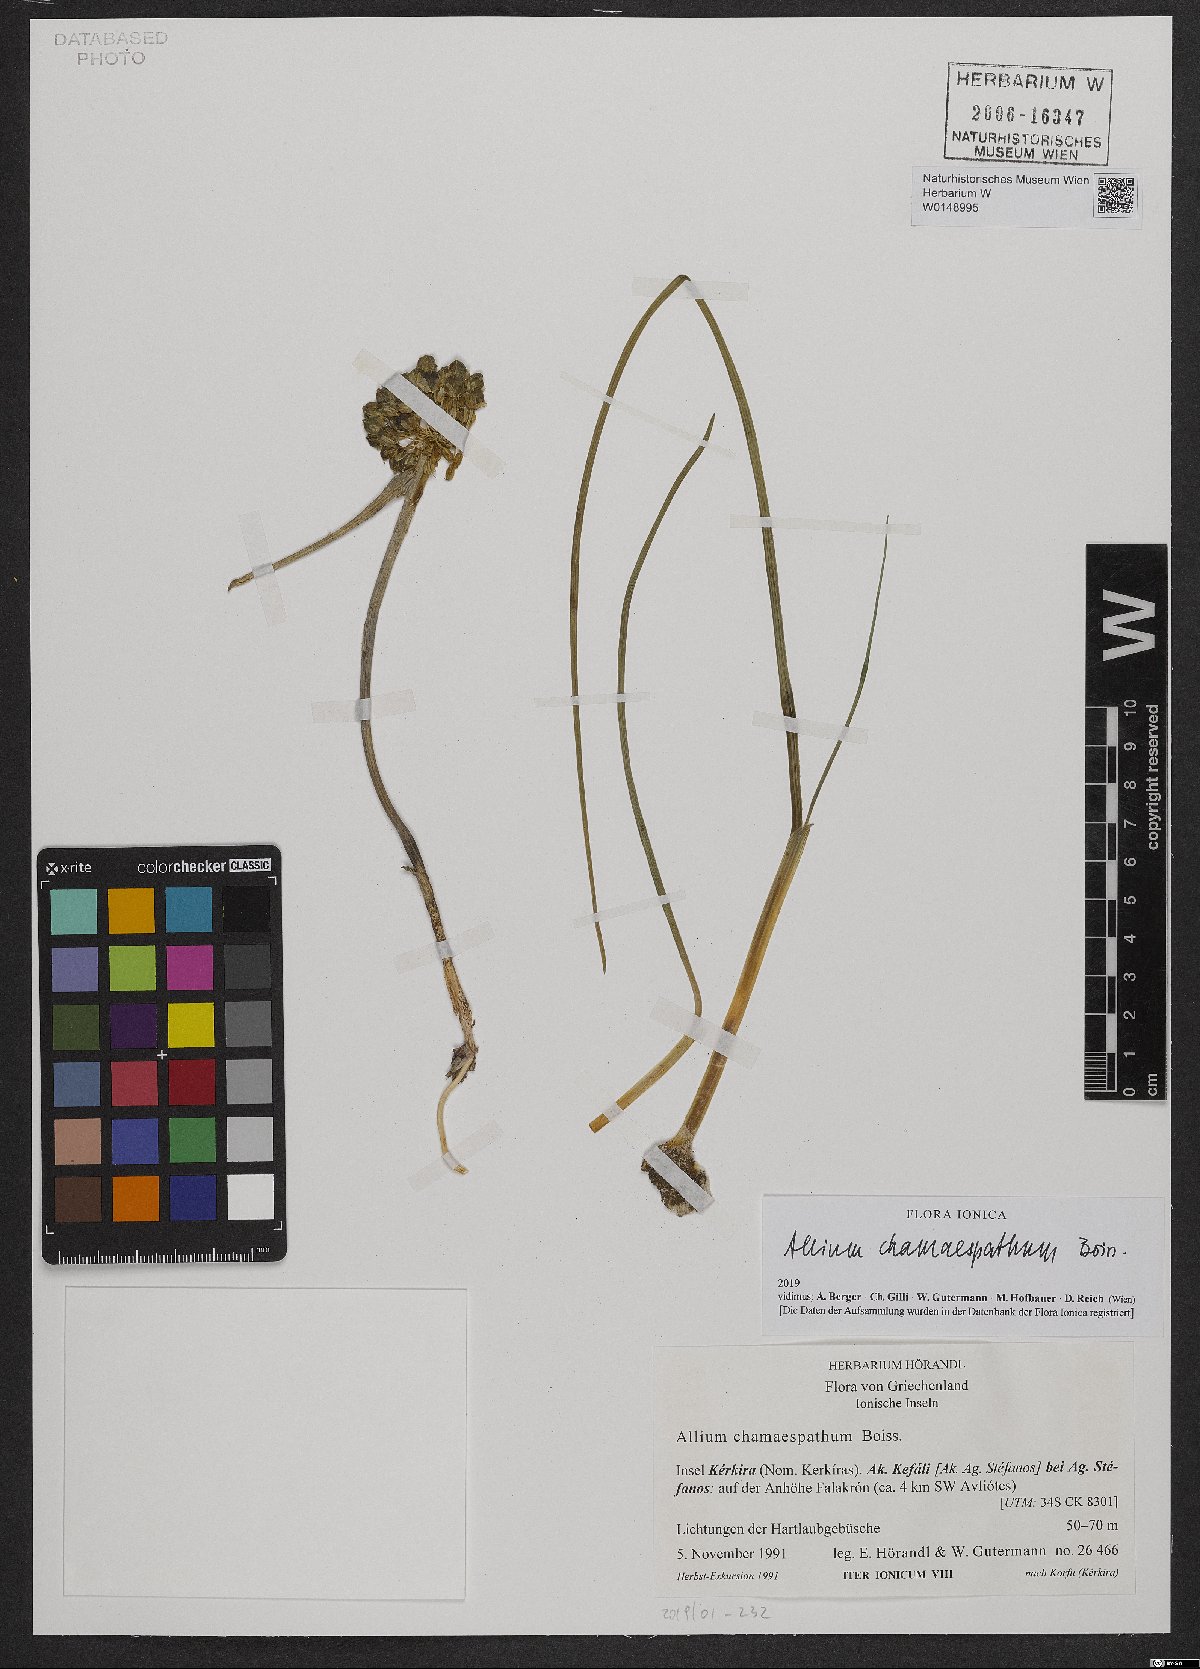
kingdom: Plantae
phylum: Tracheophyta
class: Liliopsida
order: Asparagales
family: Amaryllidaceae
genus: Allium
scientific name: Allium chamaespathum
